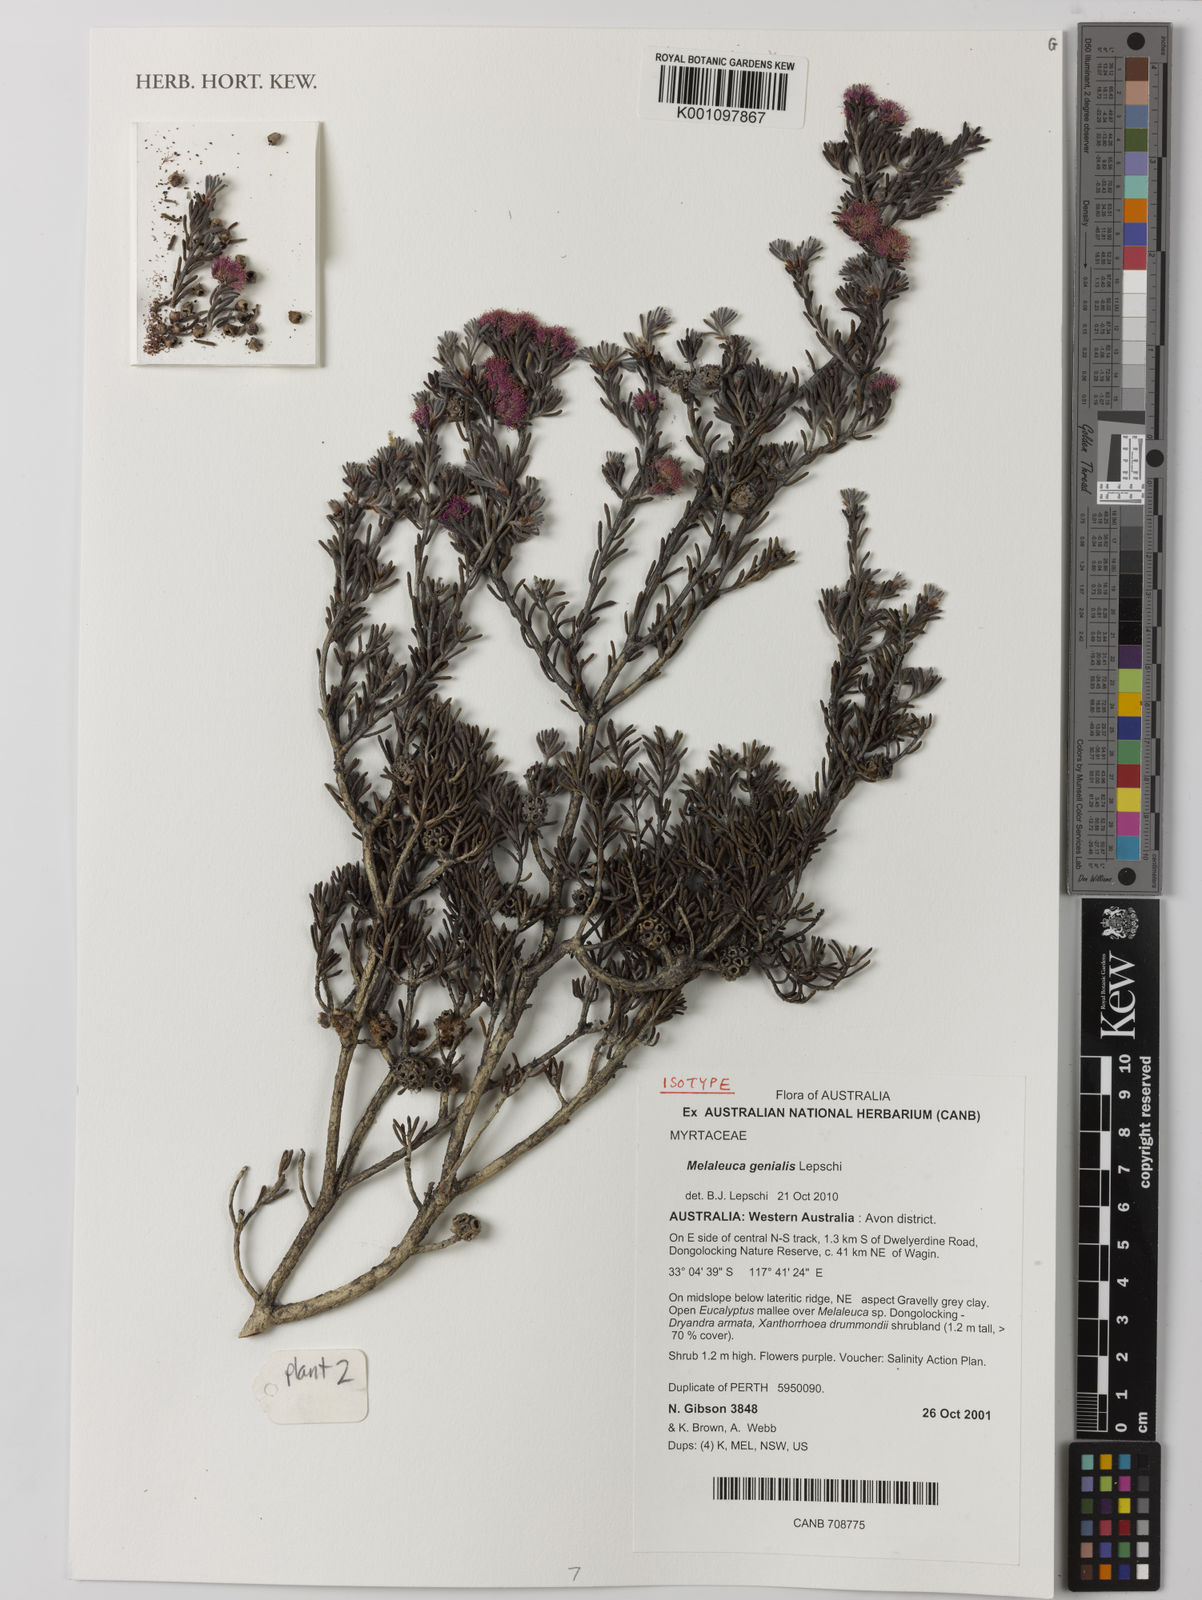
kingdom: Plantae
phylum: Tracheophyta
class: Magnoliopsida
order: Myrtales
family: Myrtaceae
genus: Melaleuca
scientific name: Melaleuca genialis
